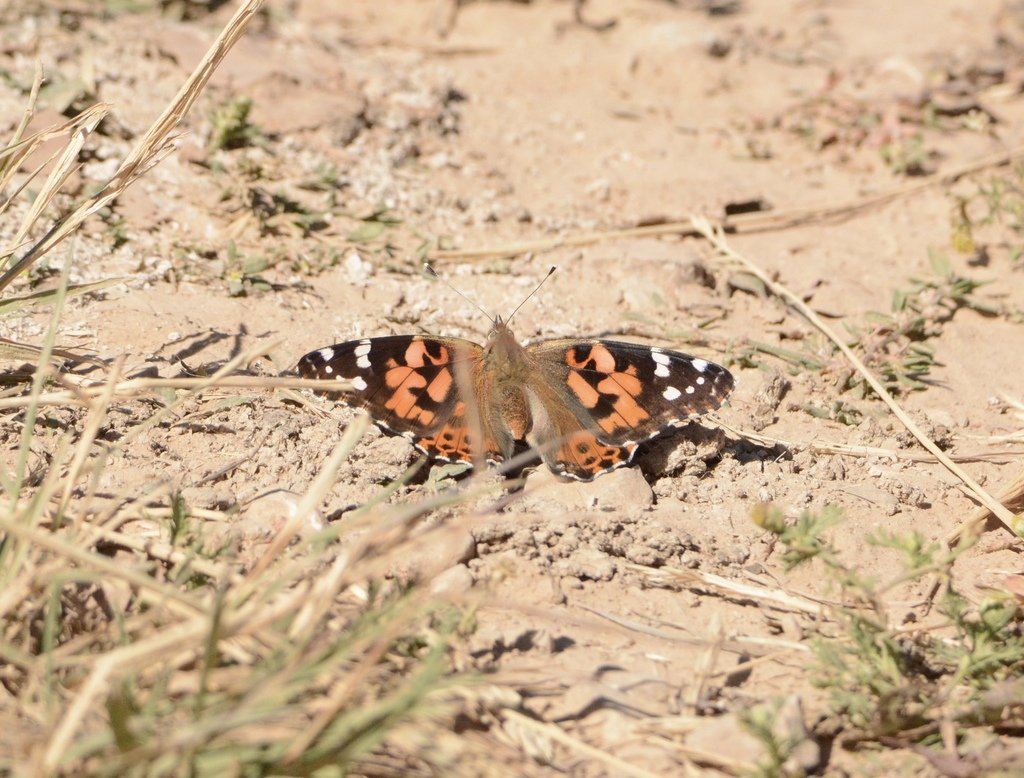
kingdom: Animalia
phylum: Arthropoda
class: Insecta
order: Lepidoptera
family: Nymphalidae
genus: Vanessa
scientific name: Vanessa cardui
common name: Painted Lady
